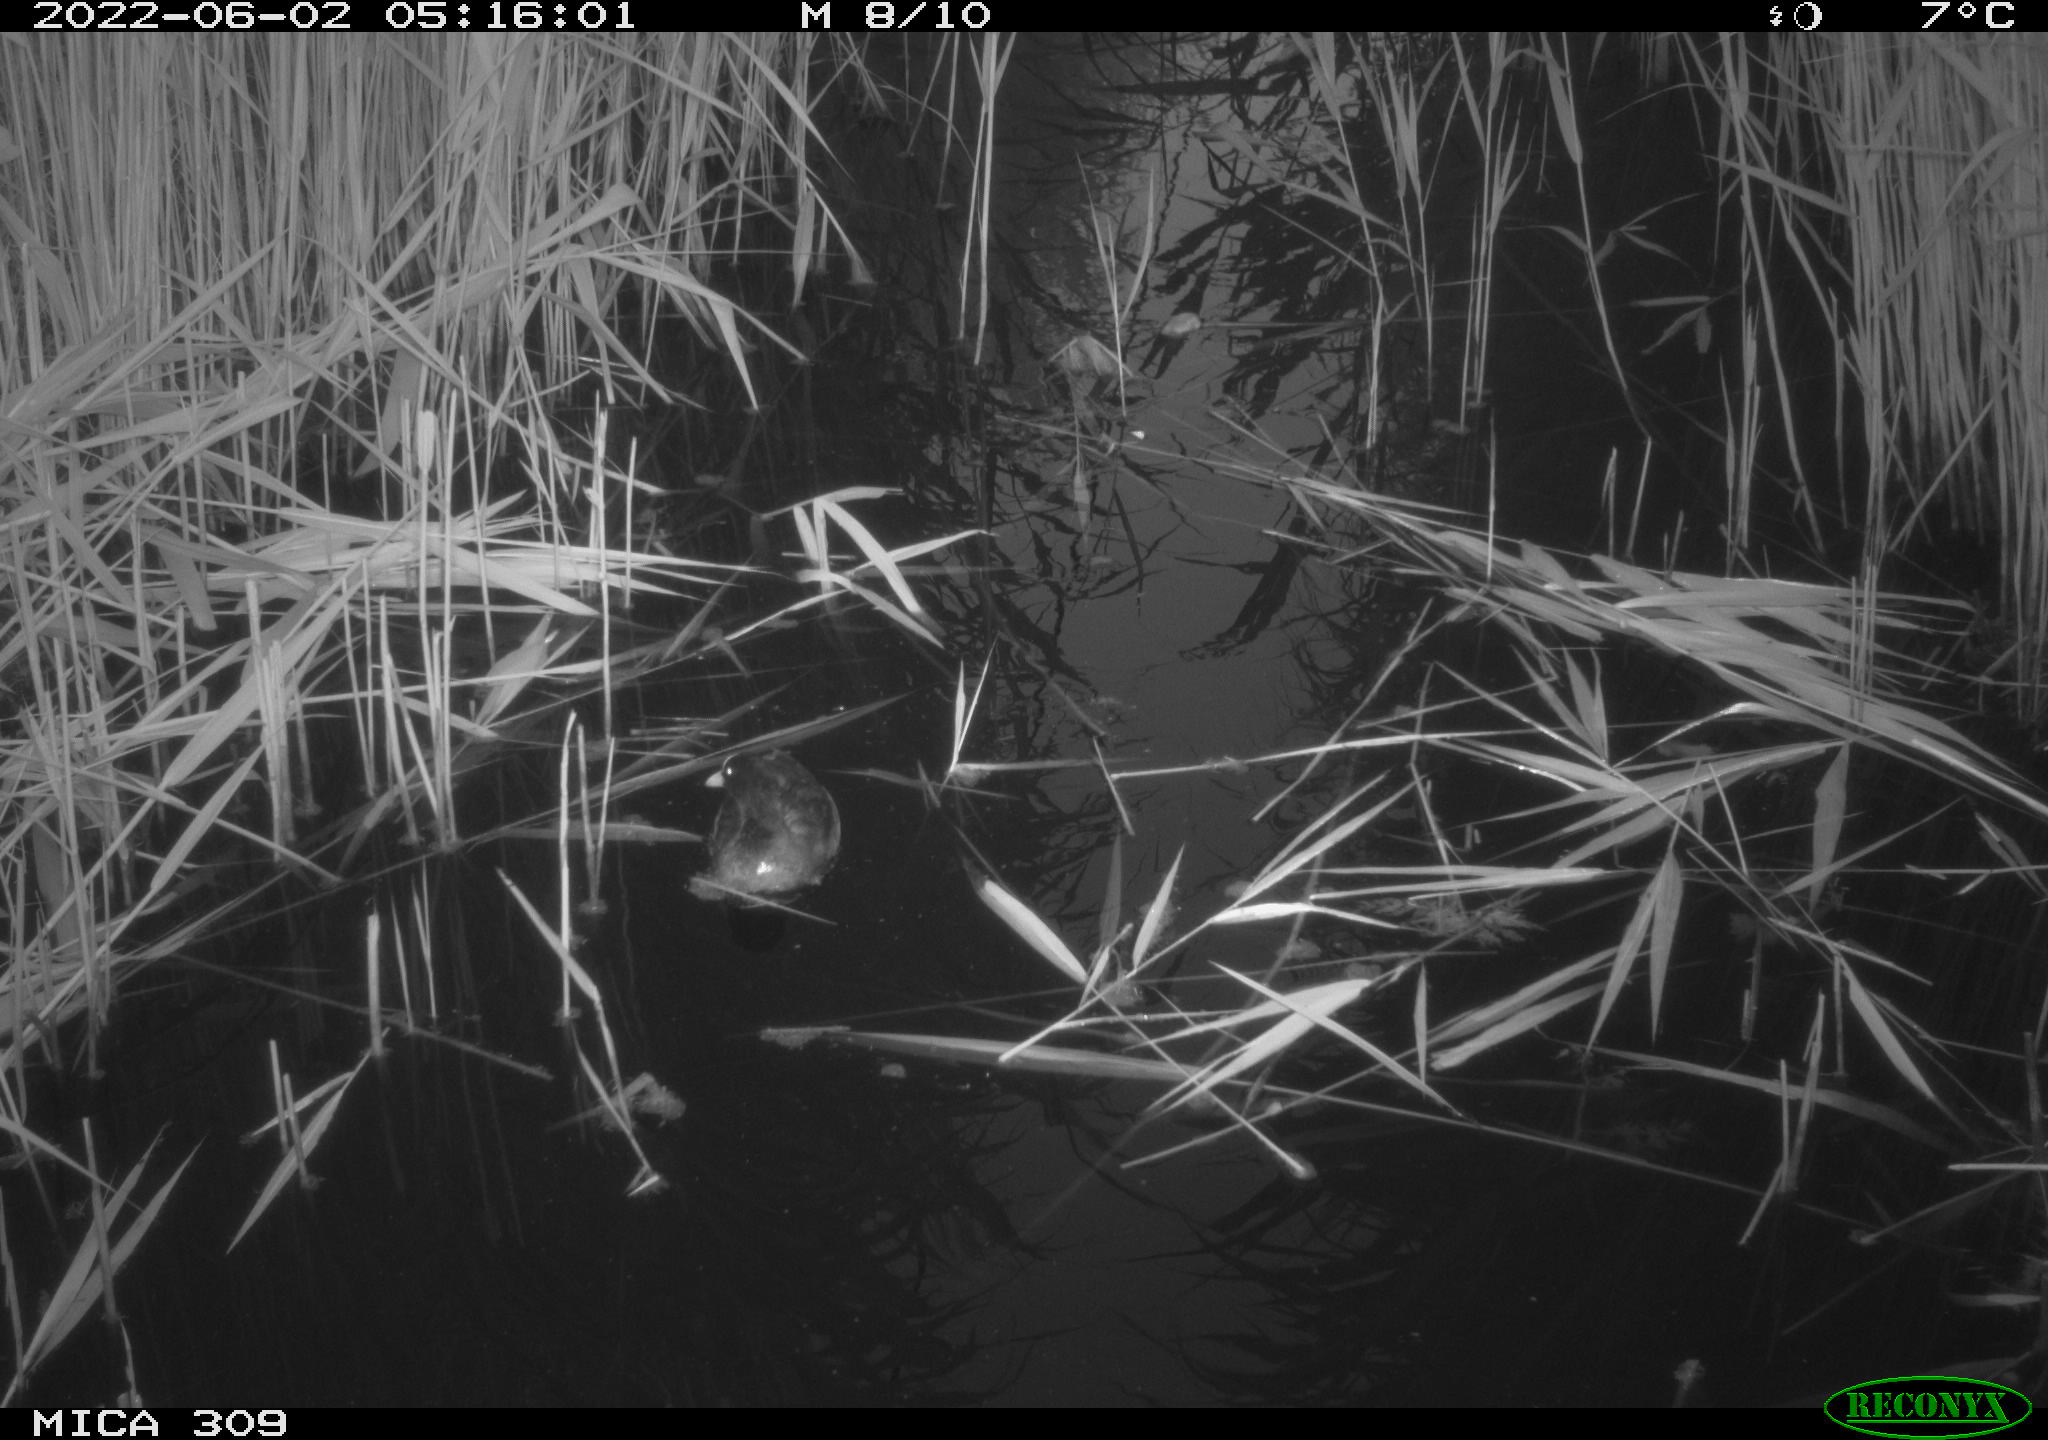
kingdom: Animalia
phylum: Chordata
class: Aves
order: Gruiformes
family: Rallidae
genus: Gallinula
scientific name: Gallinula chloropus
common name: Common moorhen
